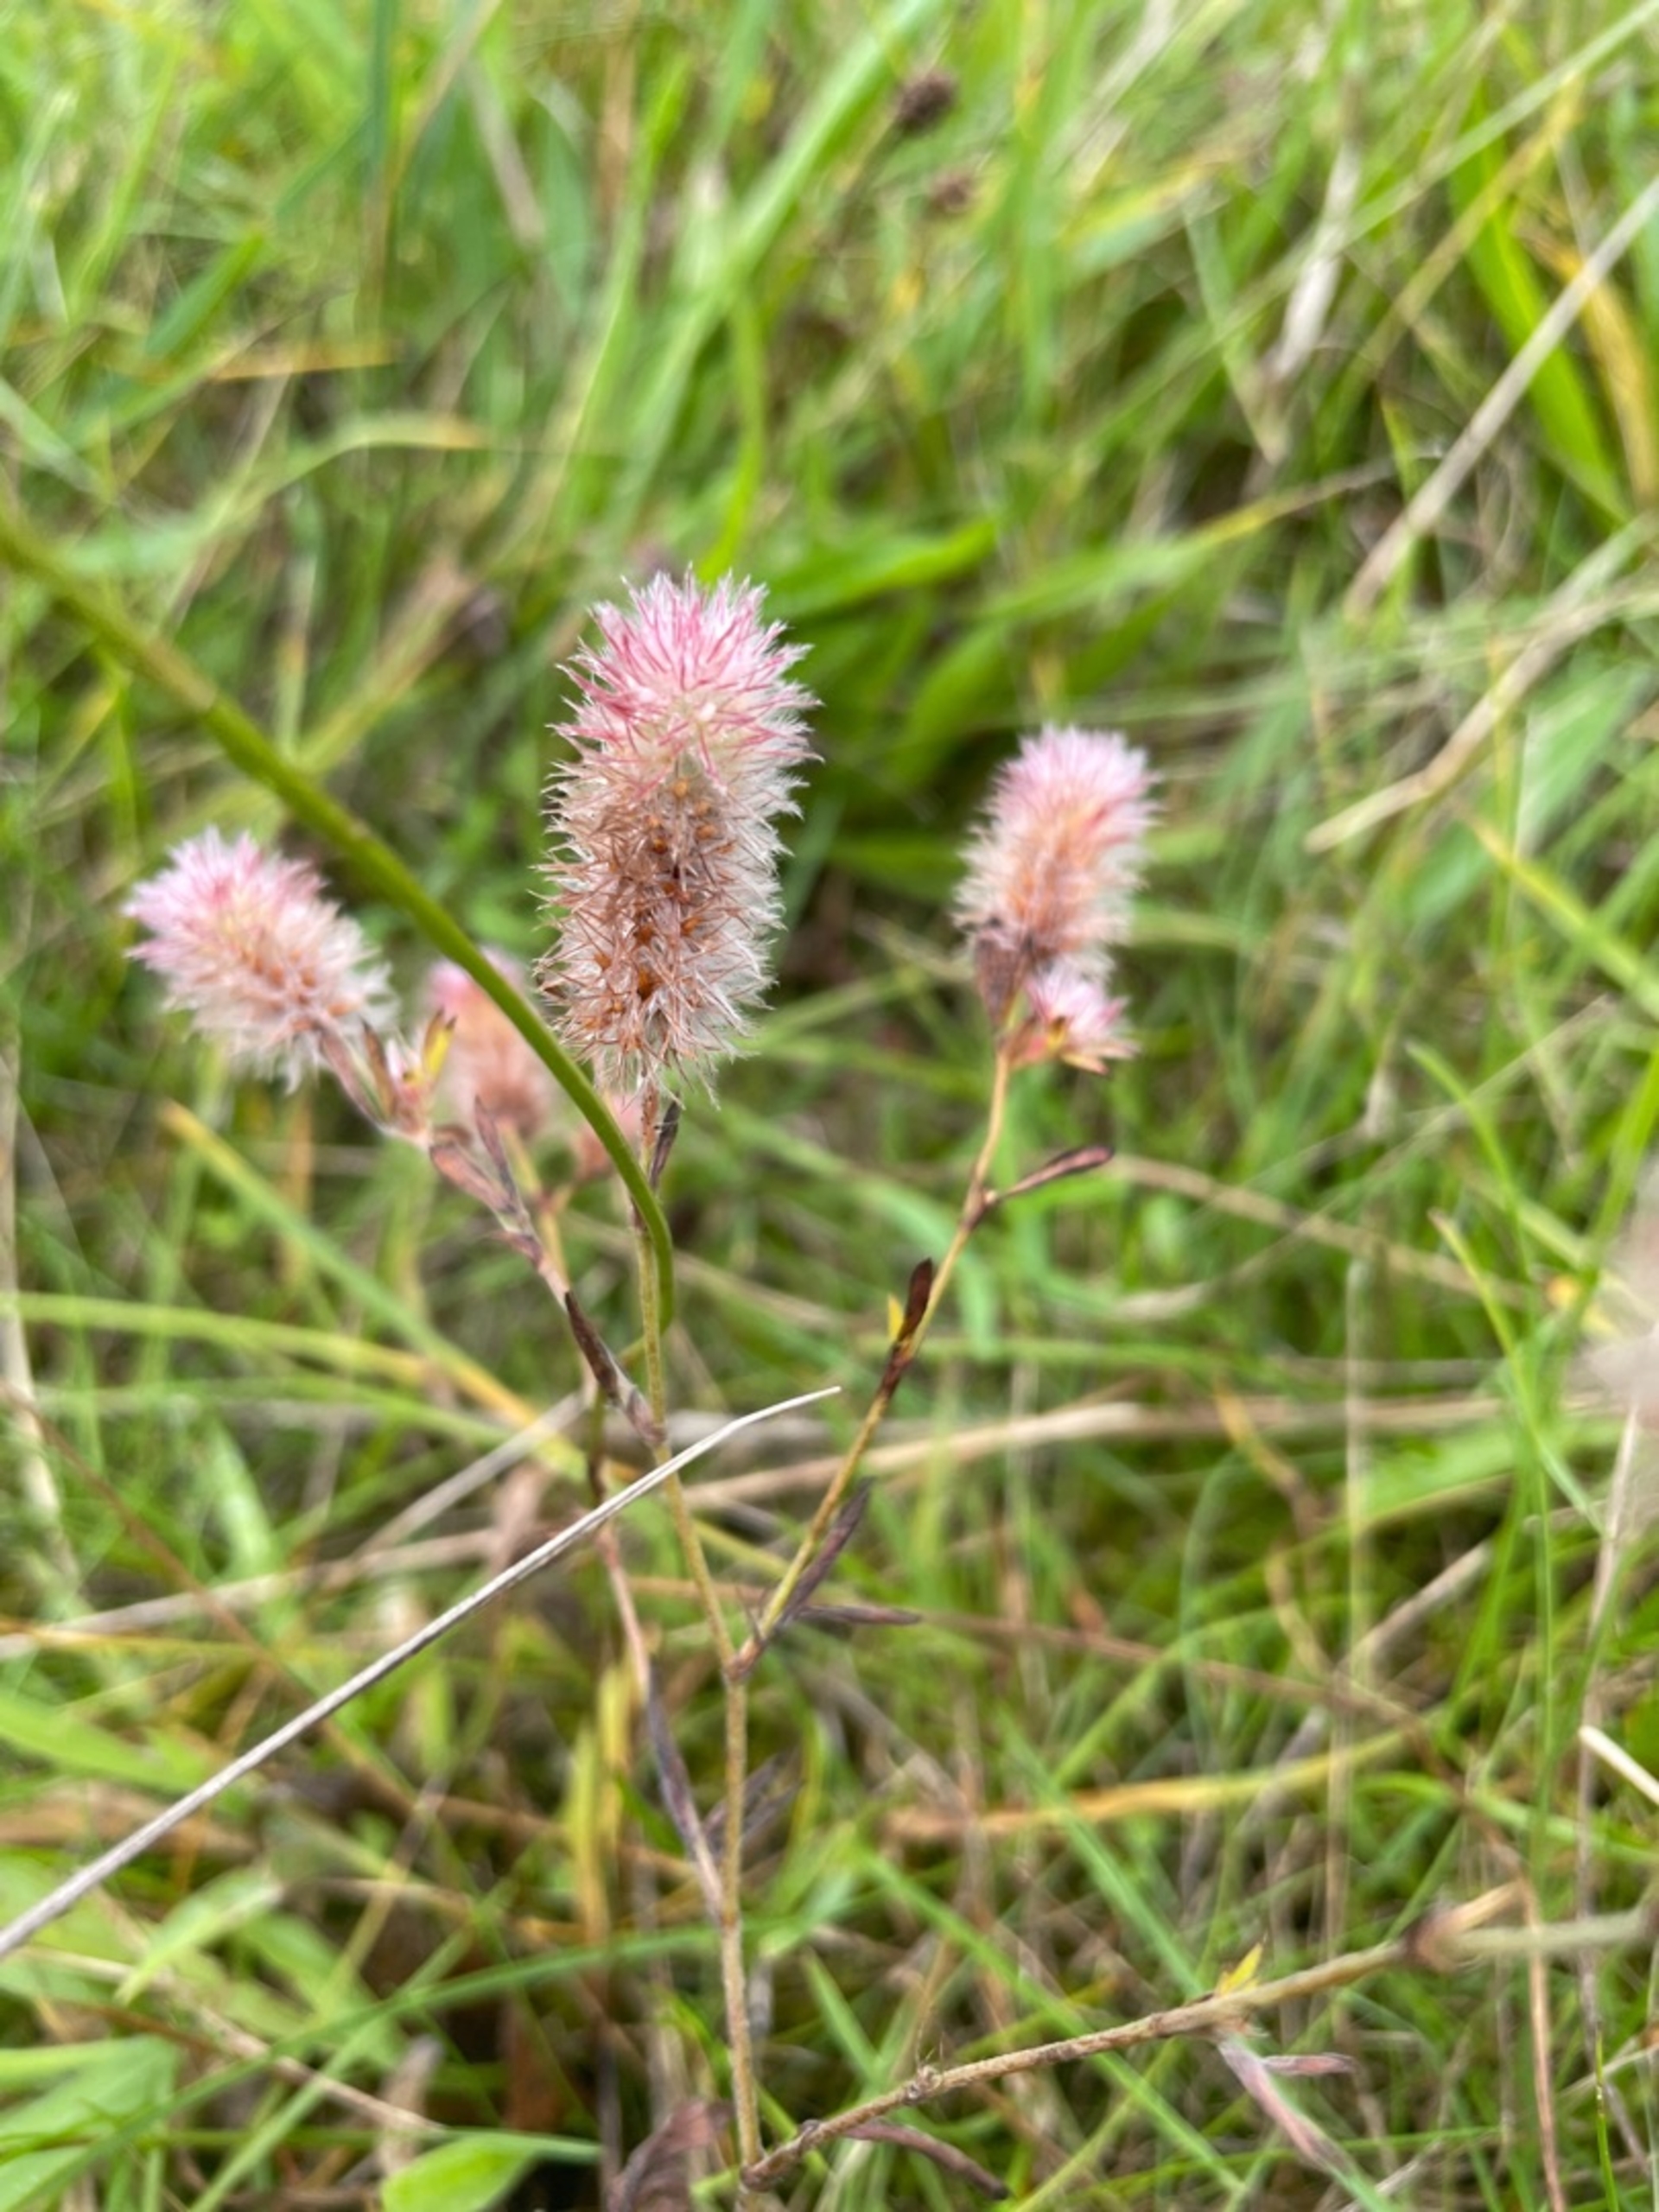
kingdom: Plantae
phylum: Tracheophyta
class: Magnoliopsida
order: Fabales
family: Fabaceae
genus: Trifolium
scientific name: Trifolium arvense
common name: Hare-kløver
